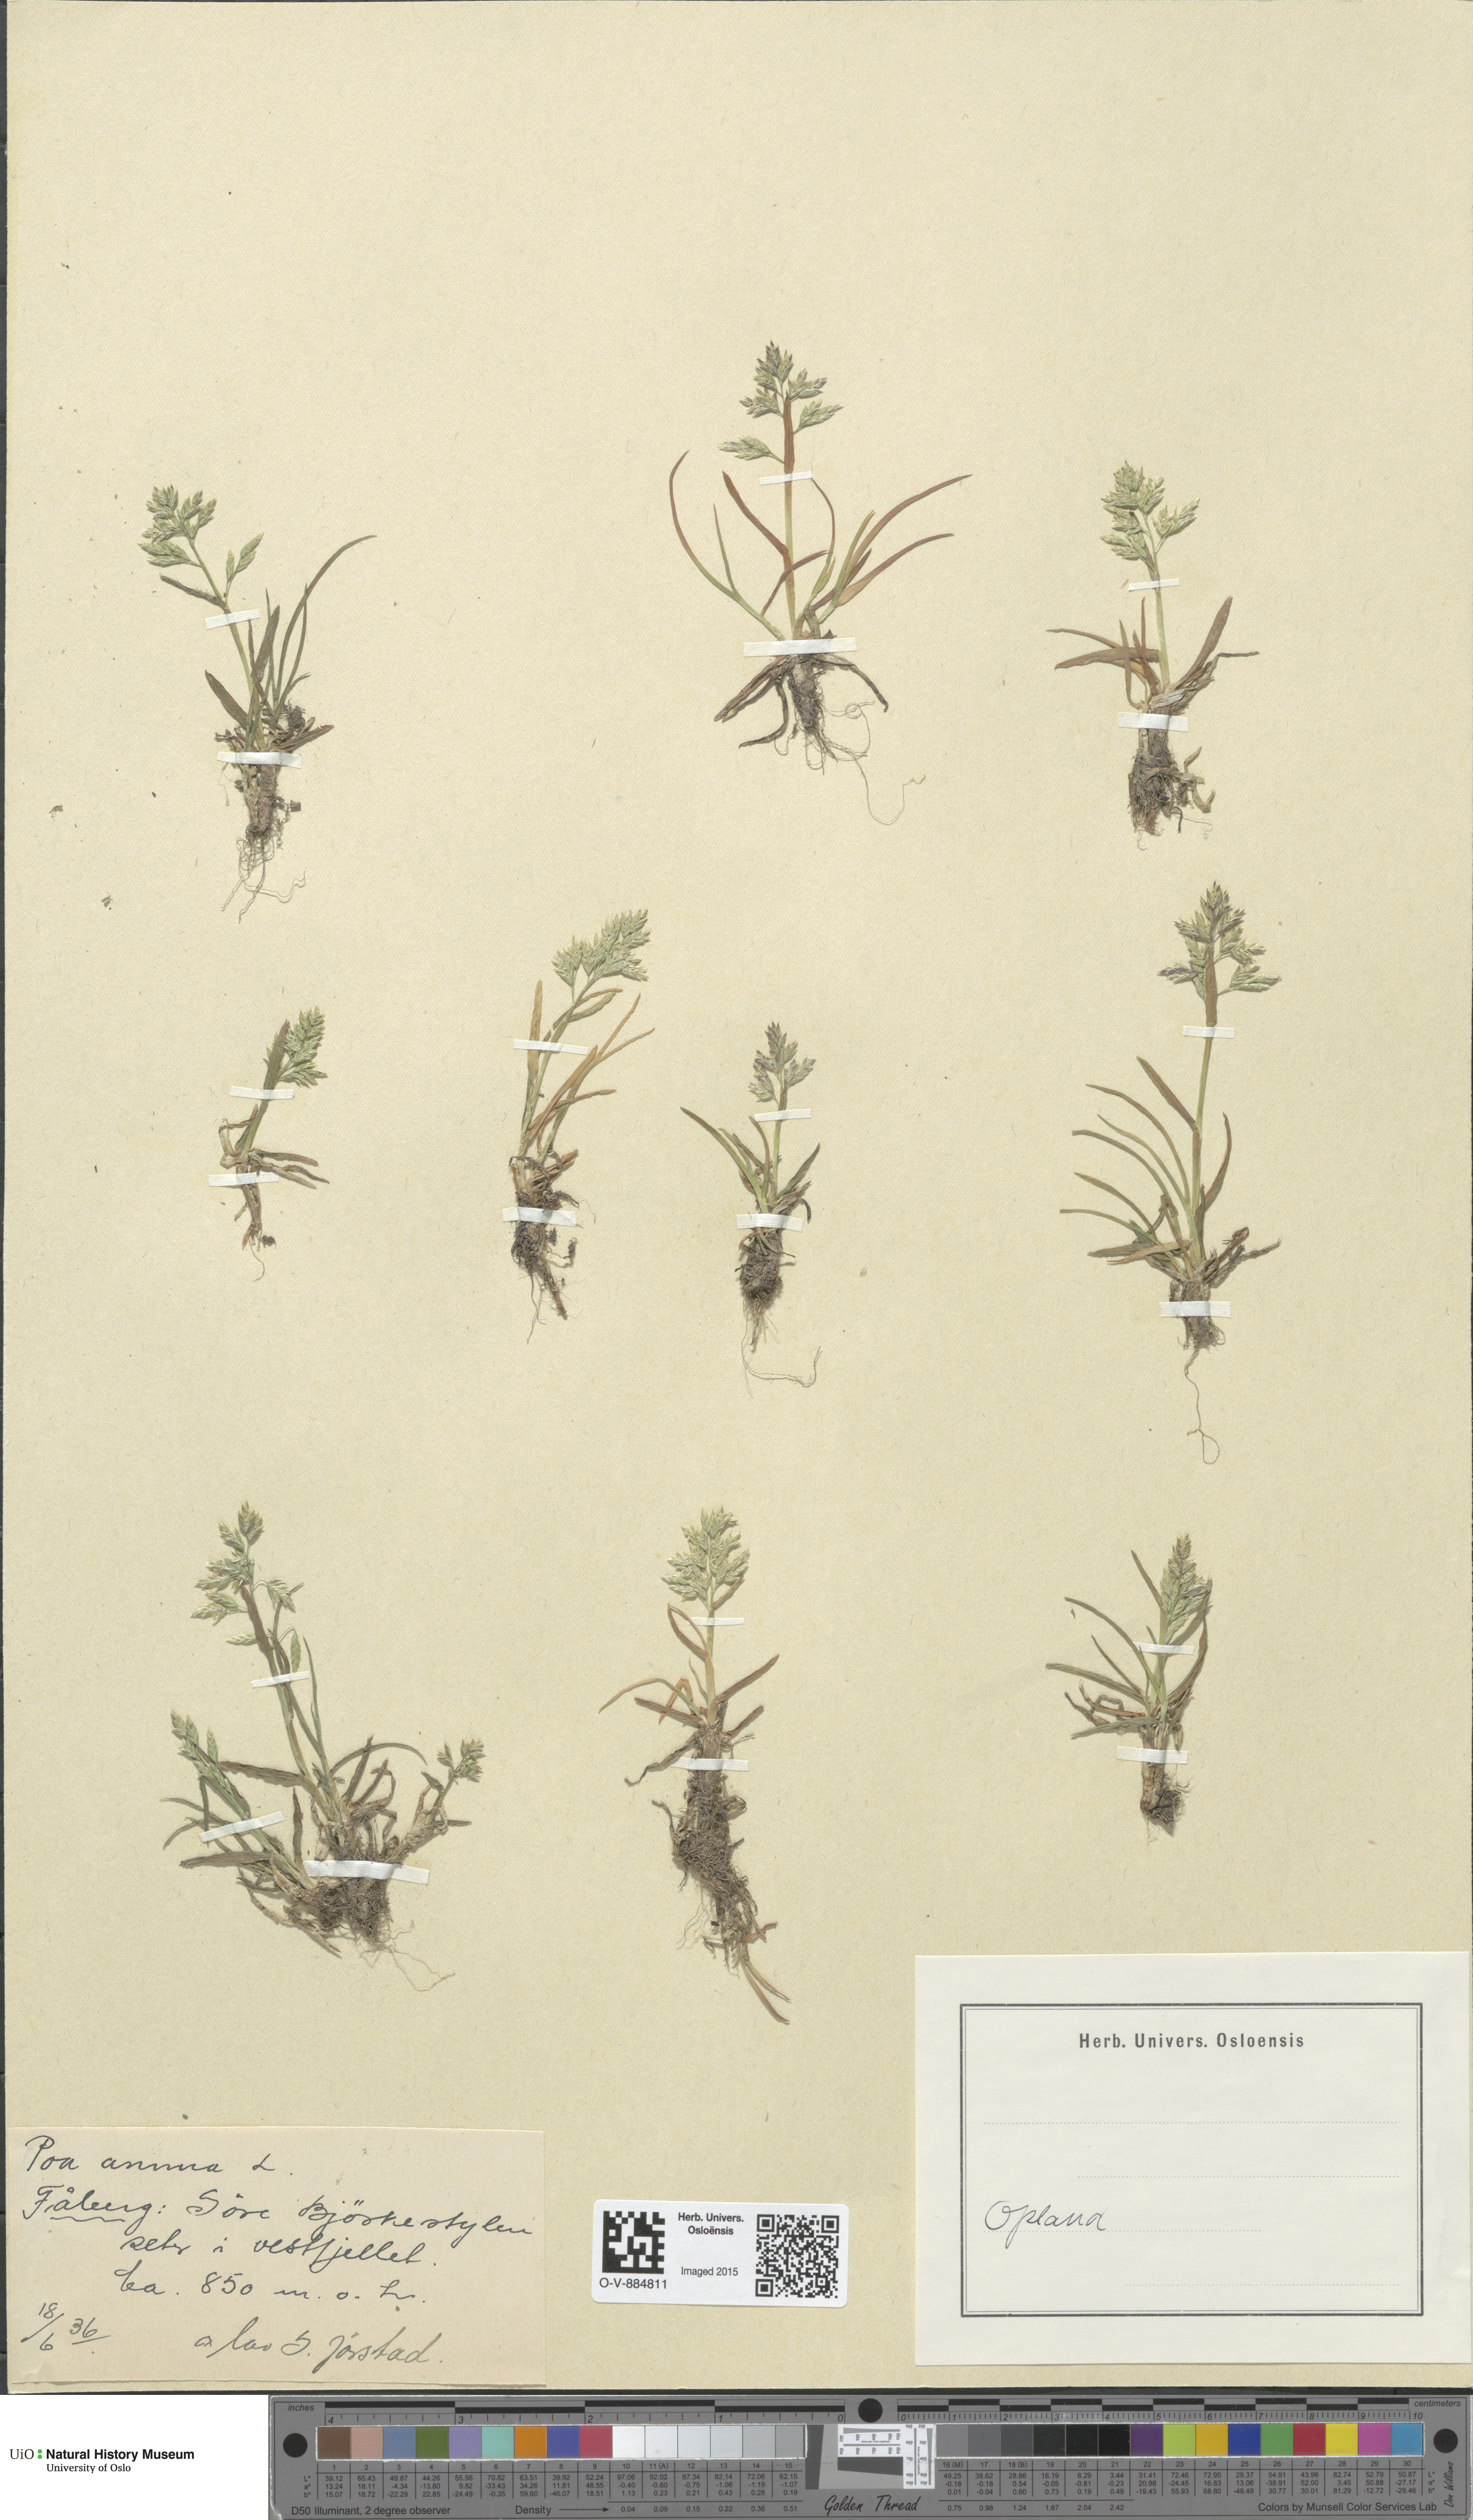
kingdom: Plantae
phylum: Tracheophyta
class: Liliopsida
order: Poales
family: Poaceae
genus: Poa
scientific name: Poa annua
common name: Annual bluegrass
